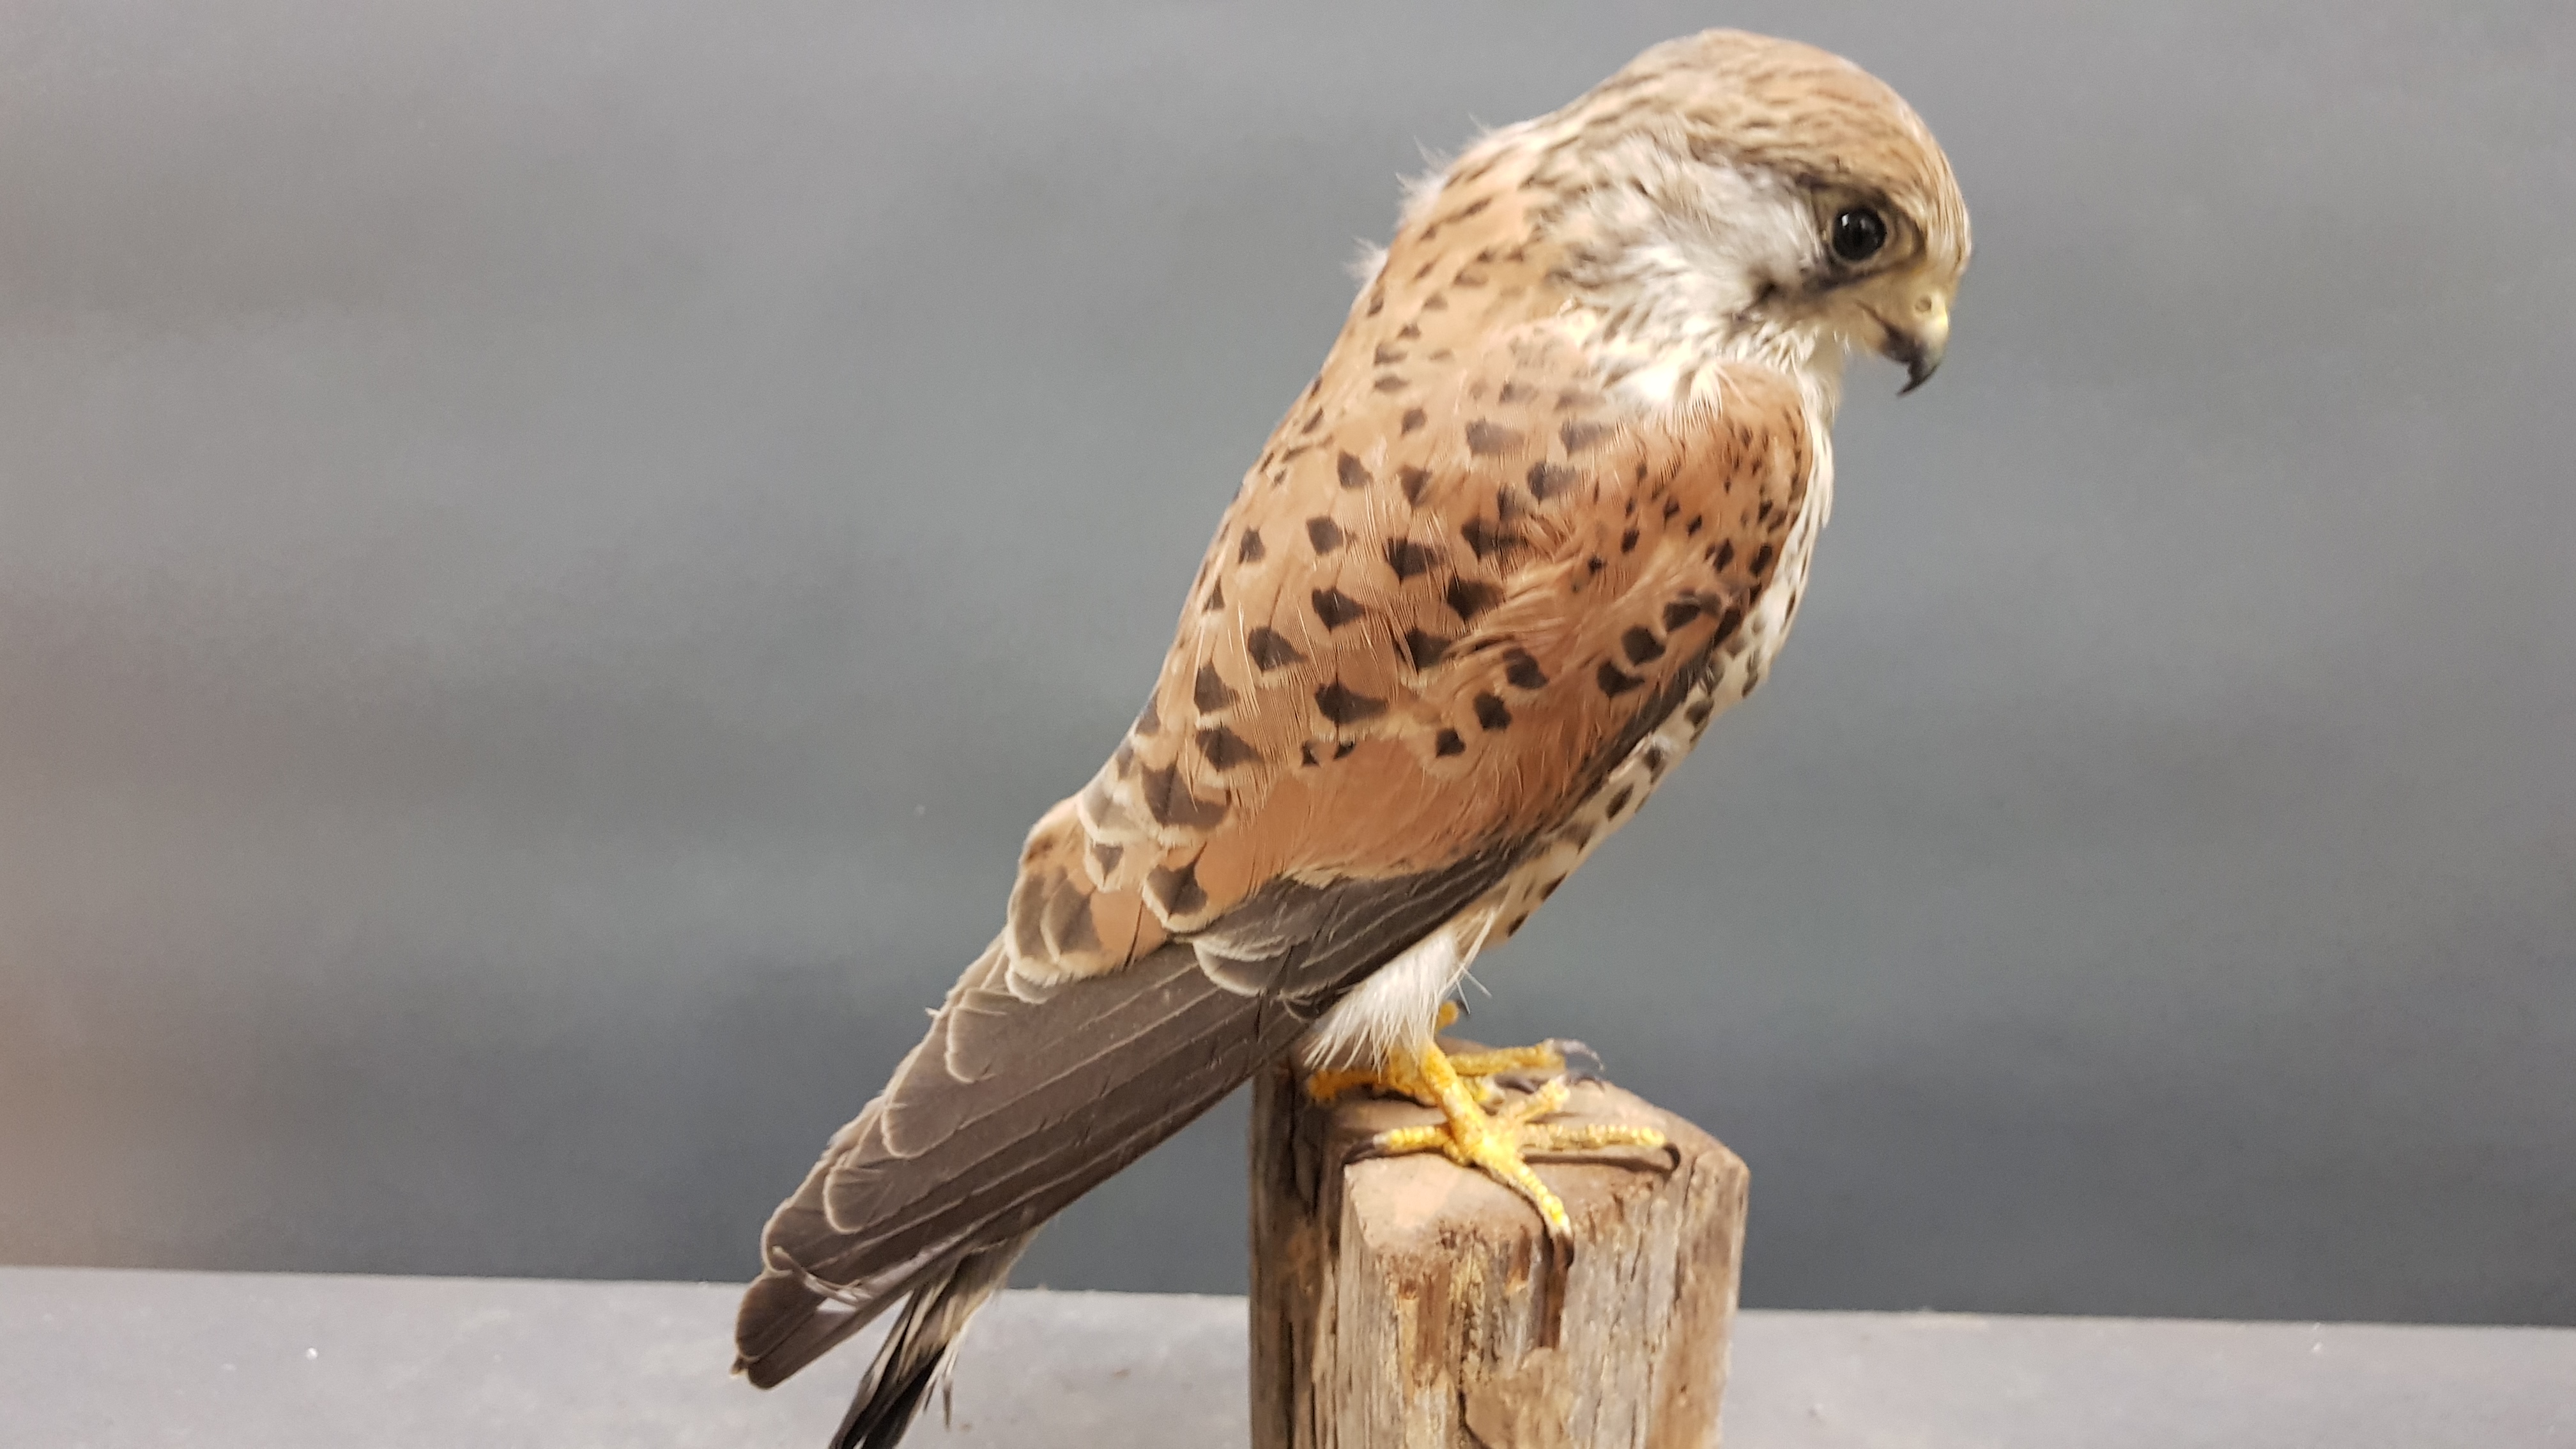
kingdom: Animalia
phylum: Chordata
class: Aves
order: Falconiformes
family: Falconidae
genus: Falco
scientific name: Falco tinnunculus
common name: Common kestrel
